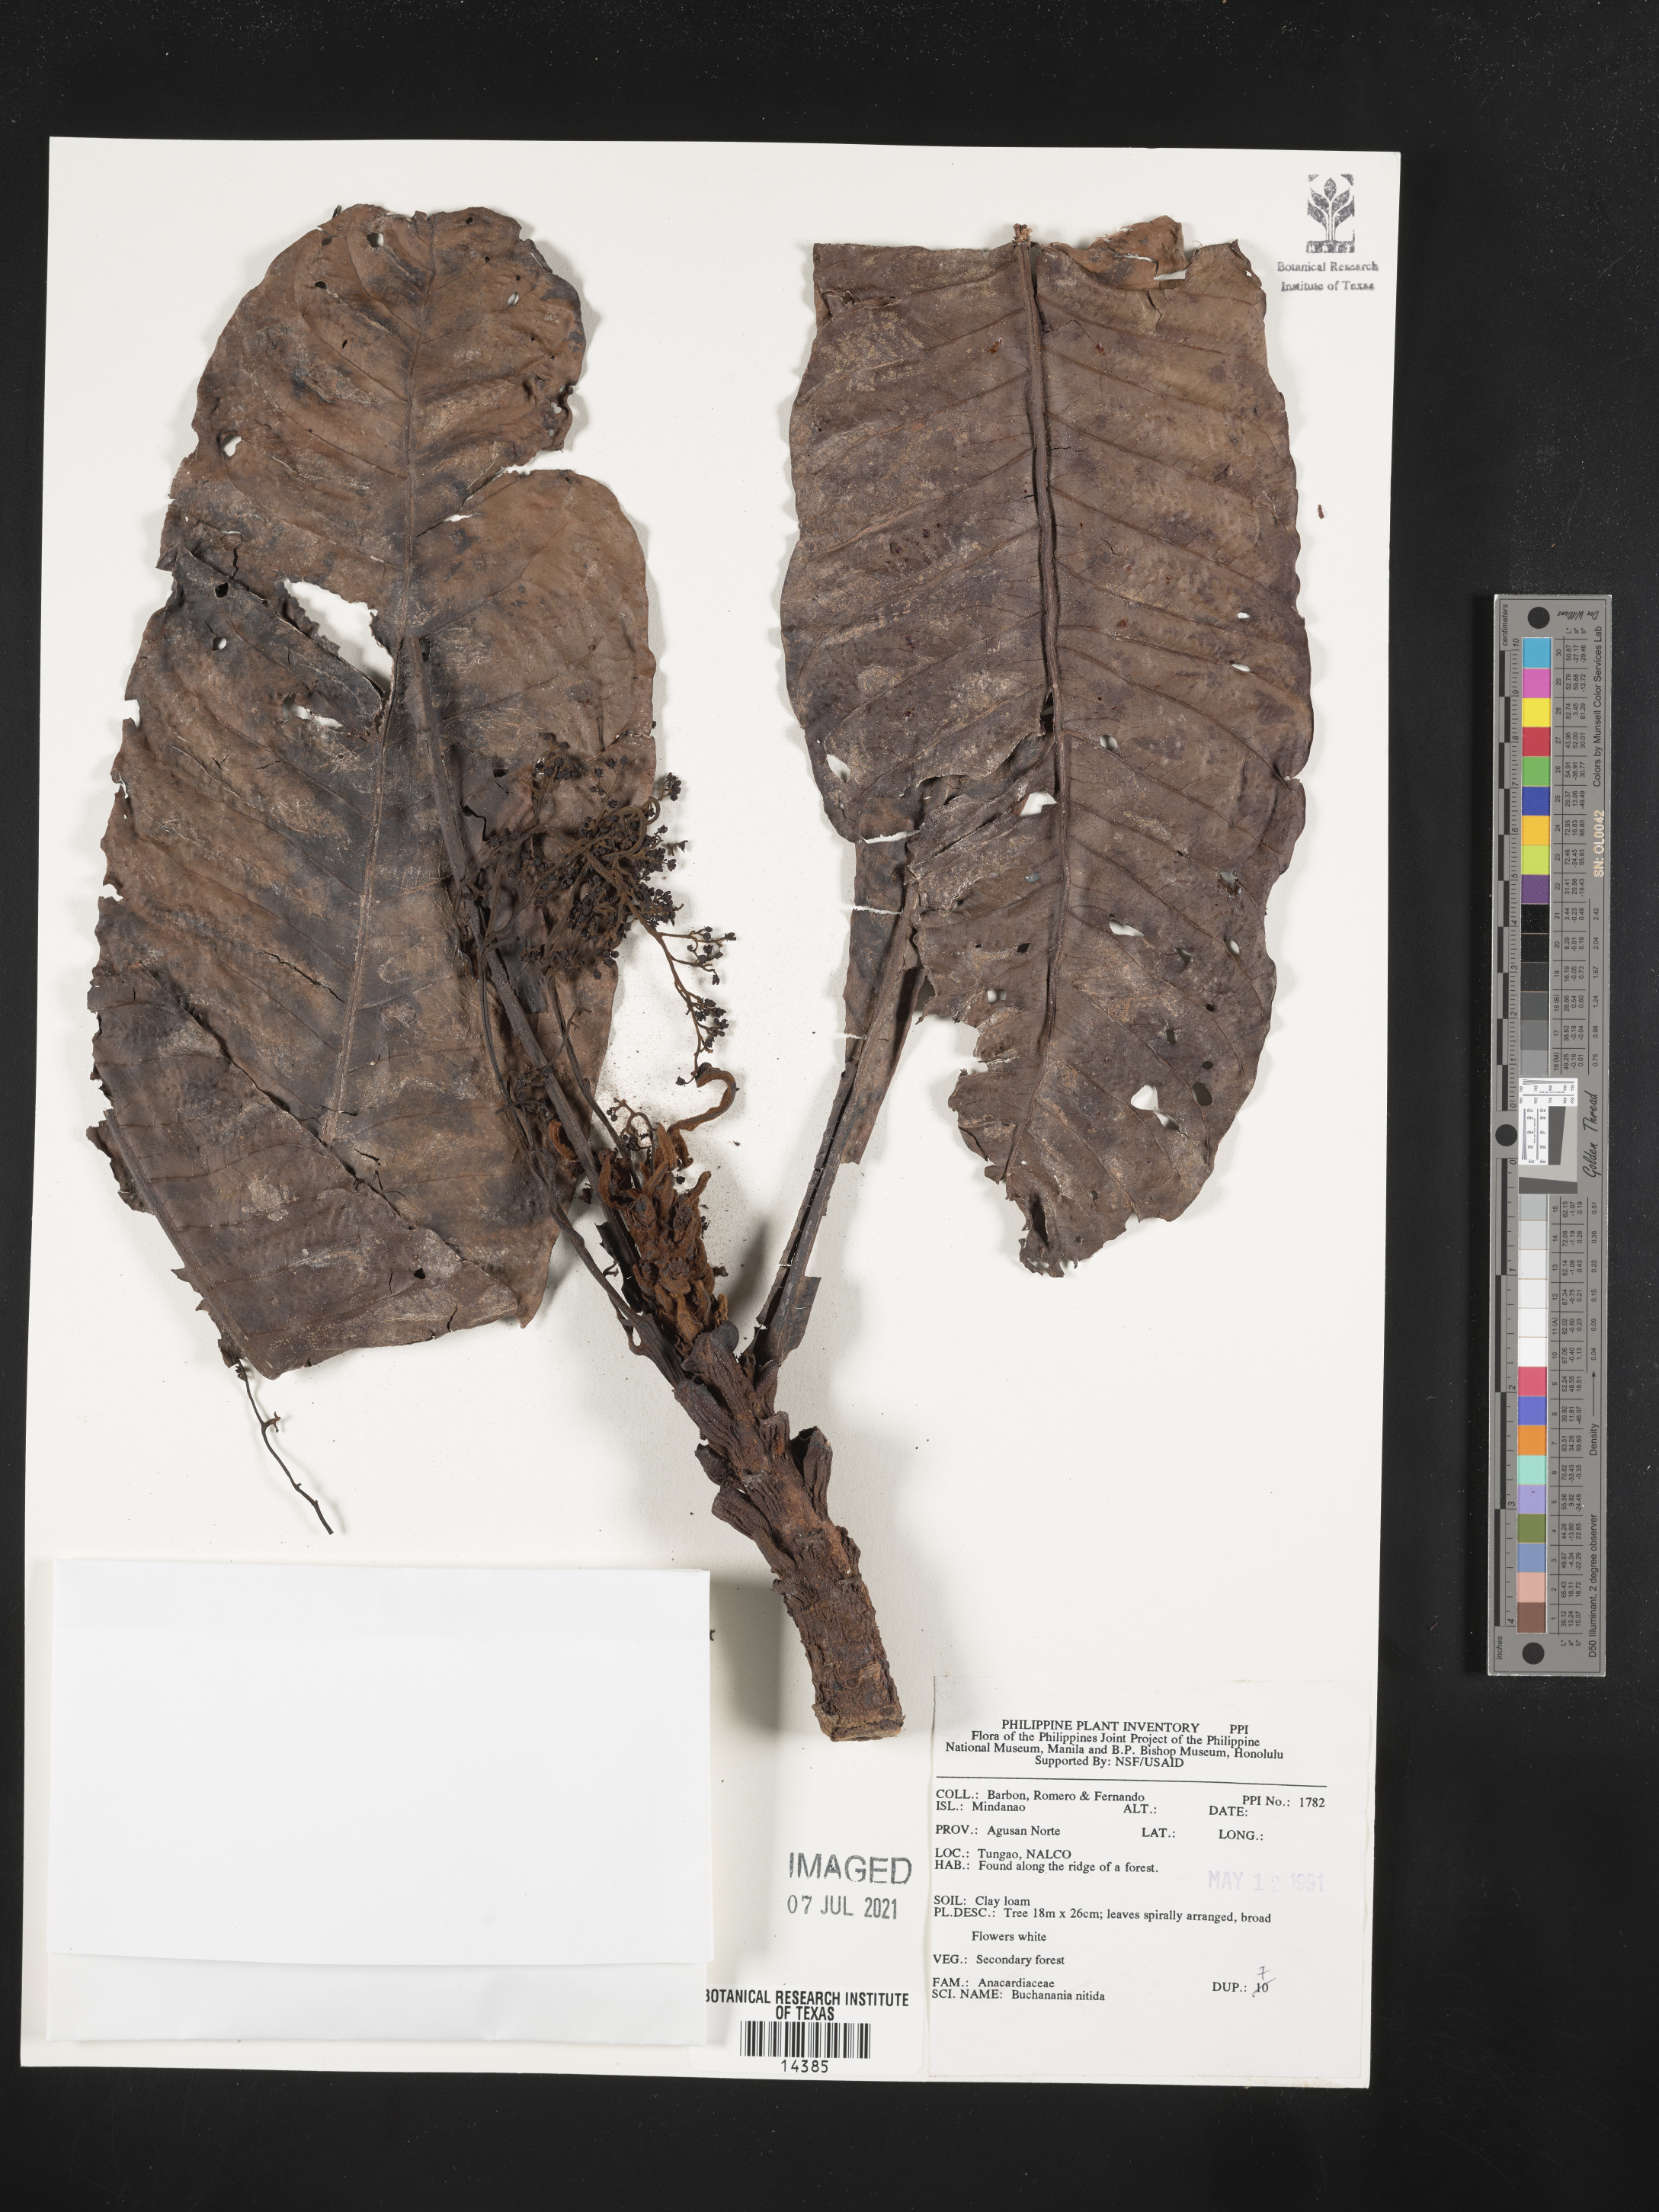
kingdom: Plantae
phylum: Tracheophyta
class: Magnoliopsida
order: Sapindales
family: Anacardiaceae
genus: Buchanania
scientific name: Buchanania nitida
